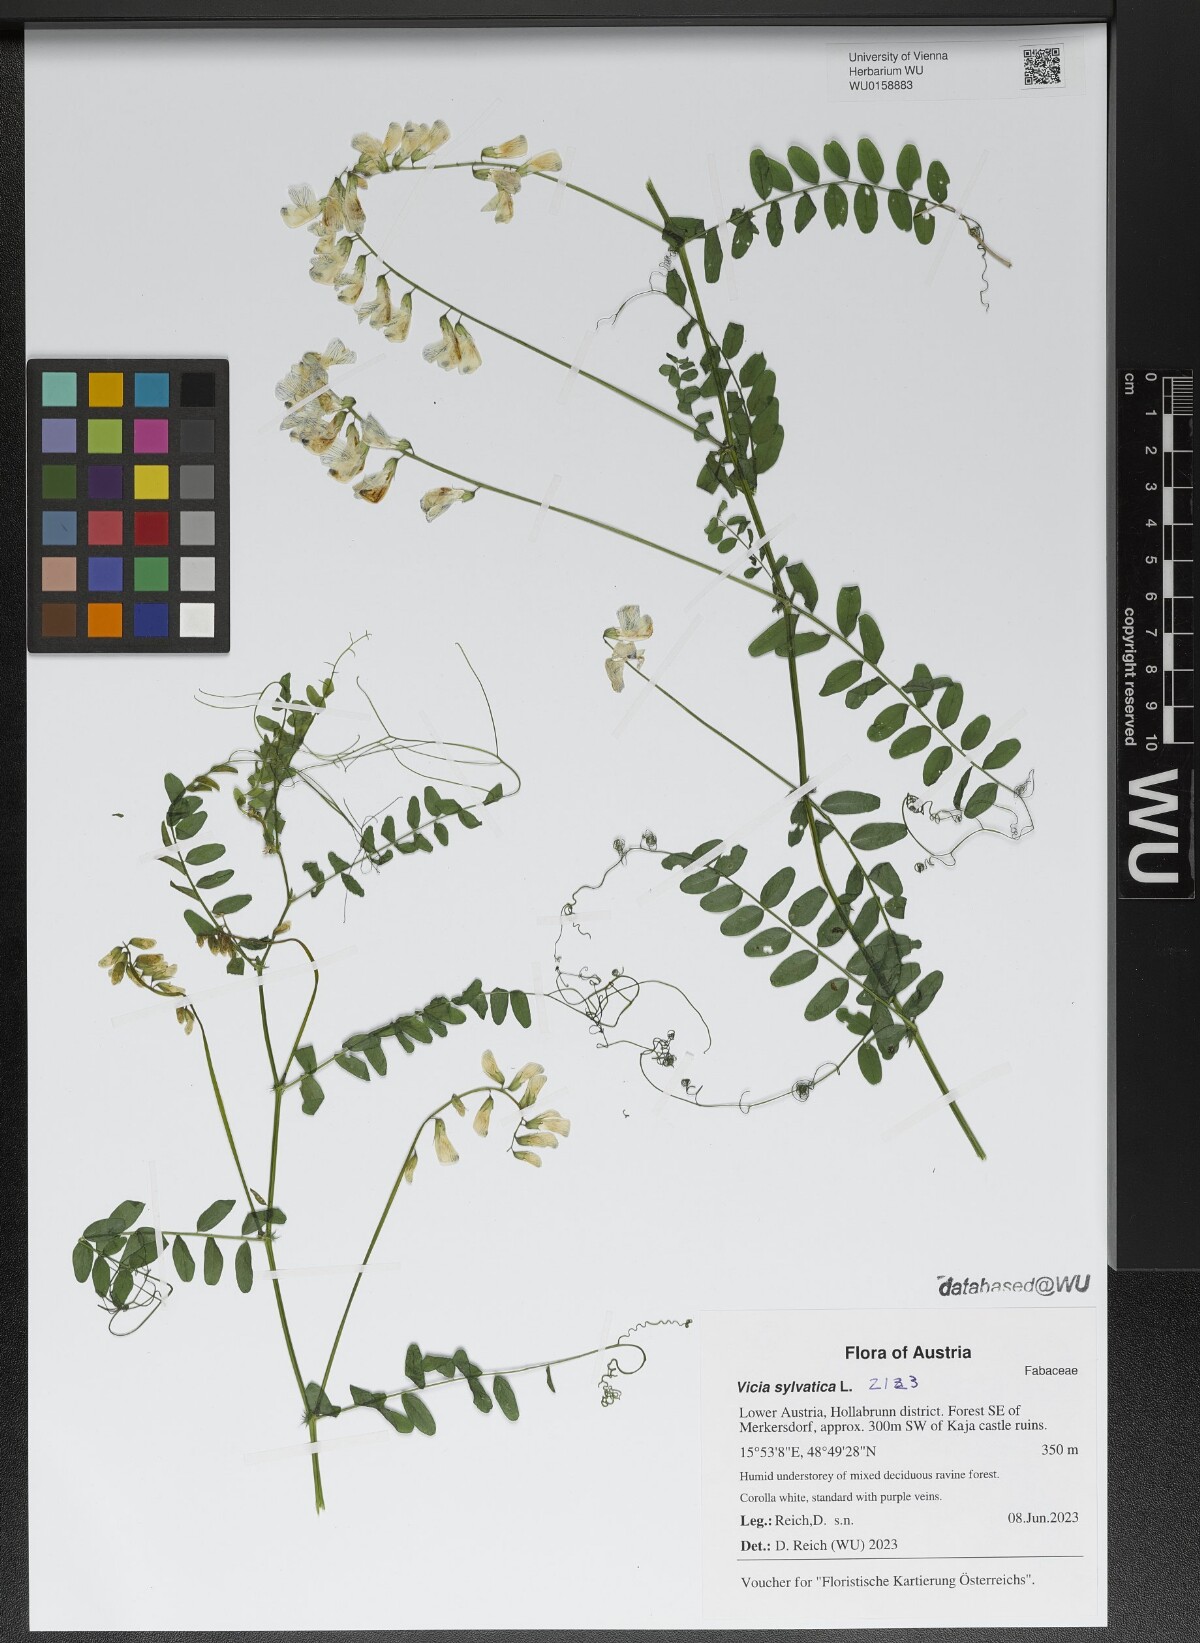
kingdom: Plantae
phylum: Tracheophyta
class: Magnoliopsida
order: Fabales
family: Fabaceae
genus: Vicia
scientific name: Vicia sylvatica
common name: Wood vetch
